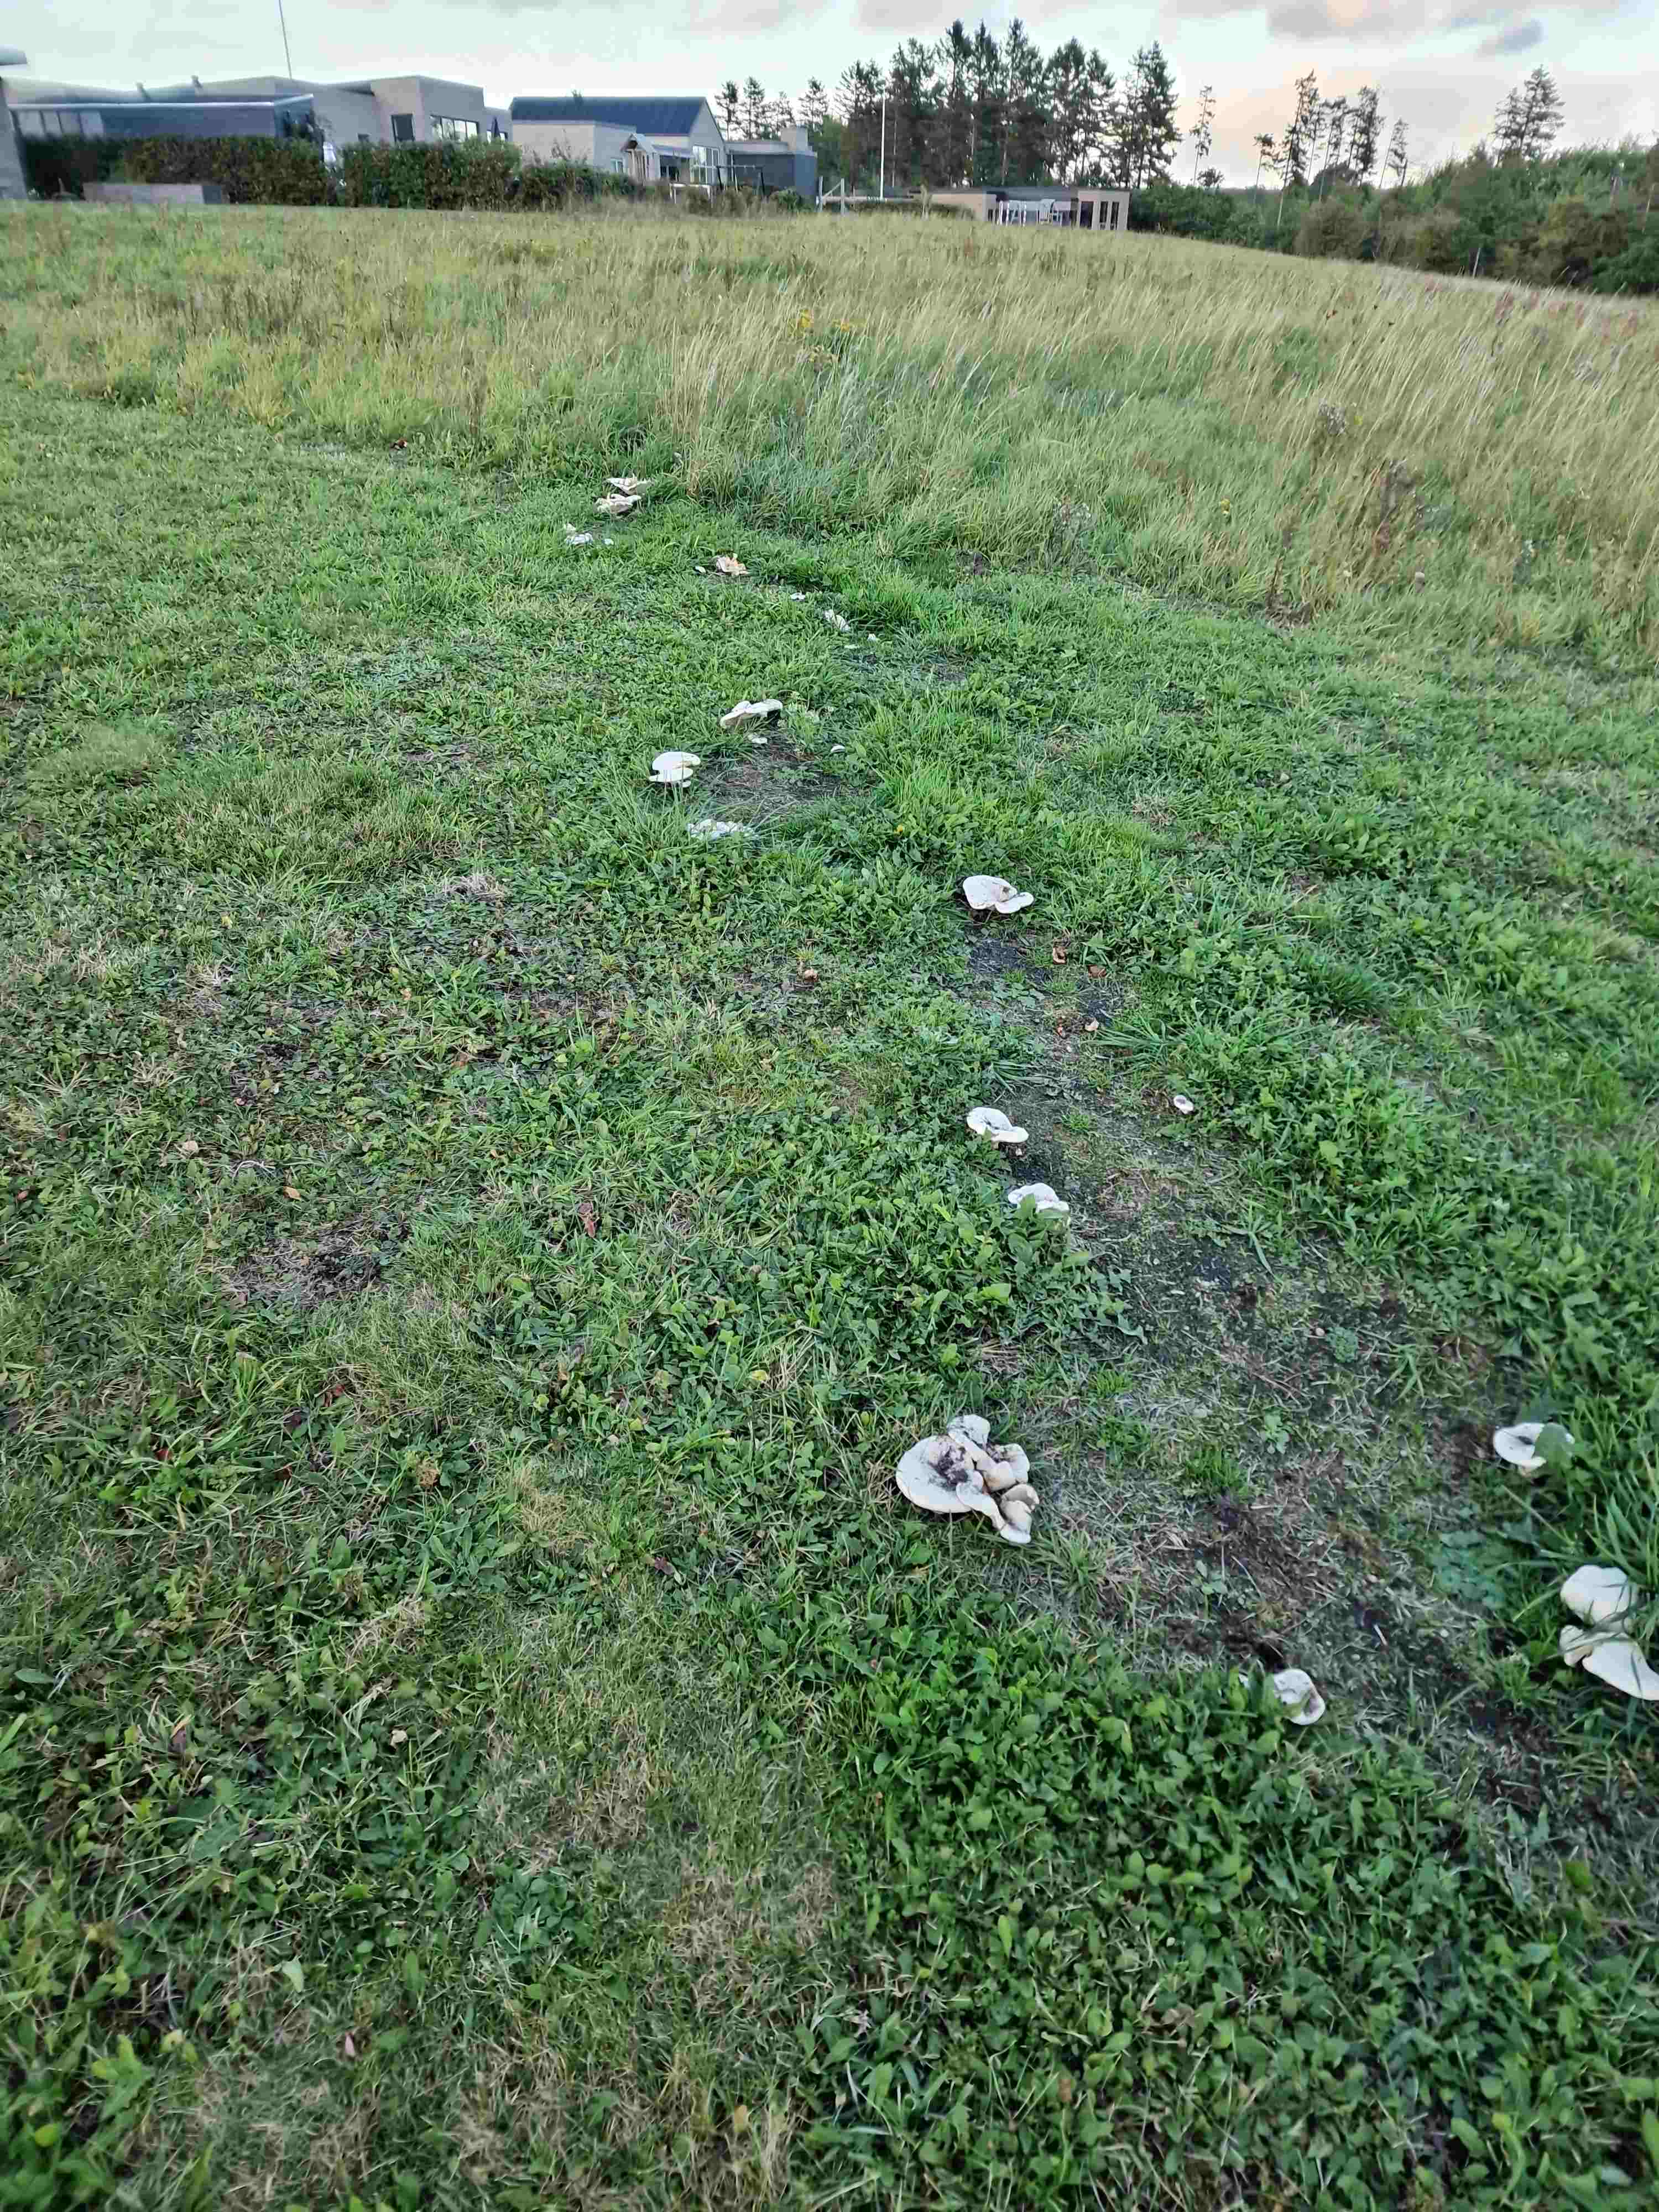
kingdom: Fungi
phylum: Basidiomycota
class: Agaricomycetes
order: Agaricales
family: Tricholomataceae
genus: Aspropaxillus
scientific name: Aspropaxillus giganteus
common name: kæmpe-tragtridderhat
